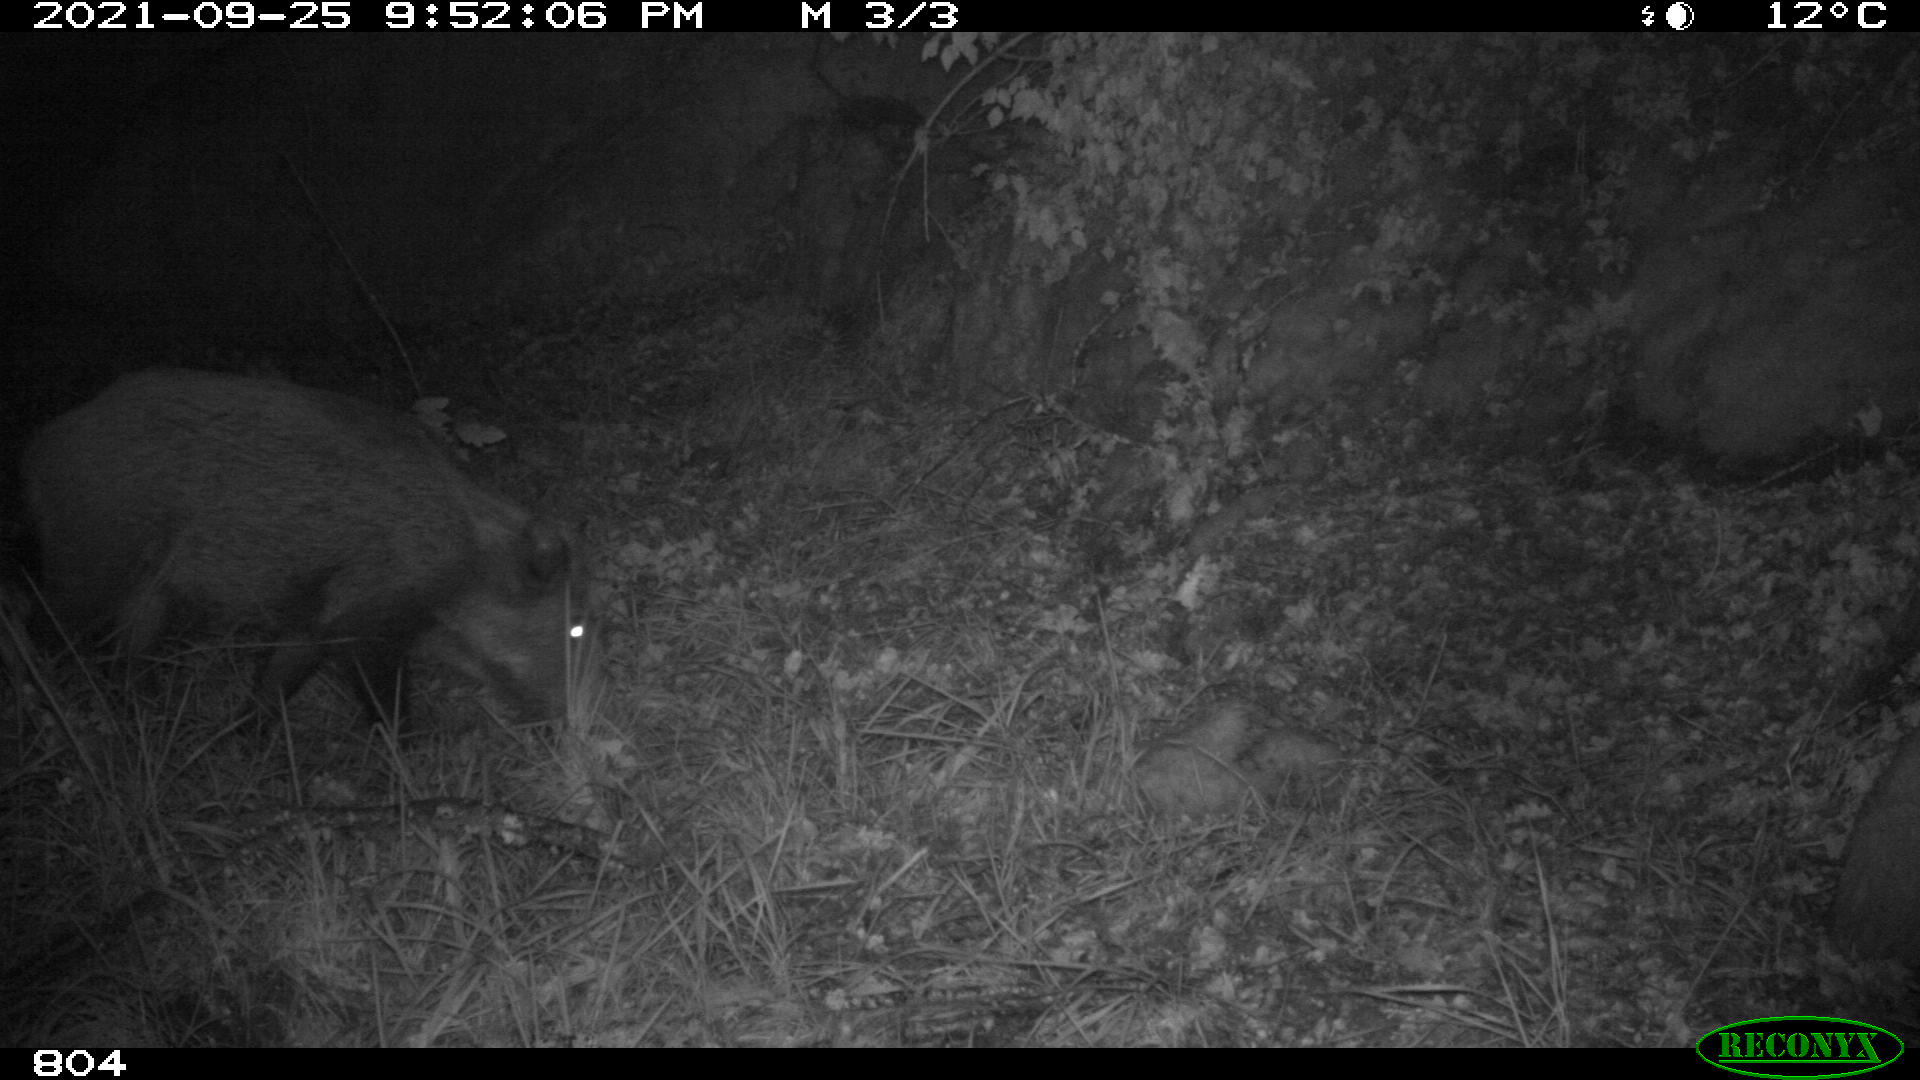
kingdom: Animalia
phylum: Chordata
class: Mammalia
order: Artiodactyla
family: Suidae
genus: Sus
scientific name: Sus scrofa
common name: Wild boar
